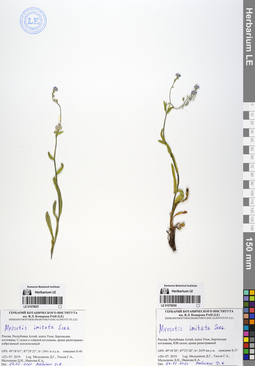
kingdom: Plantae
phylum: Tracheophyta
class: Magnoliopsida
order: Boraginales
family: Boraginaceae
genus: Myosotis
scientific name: Myosotis imitata
